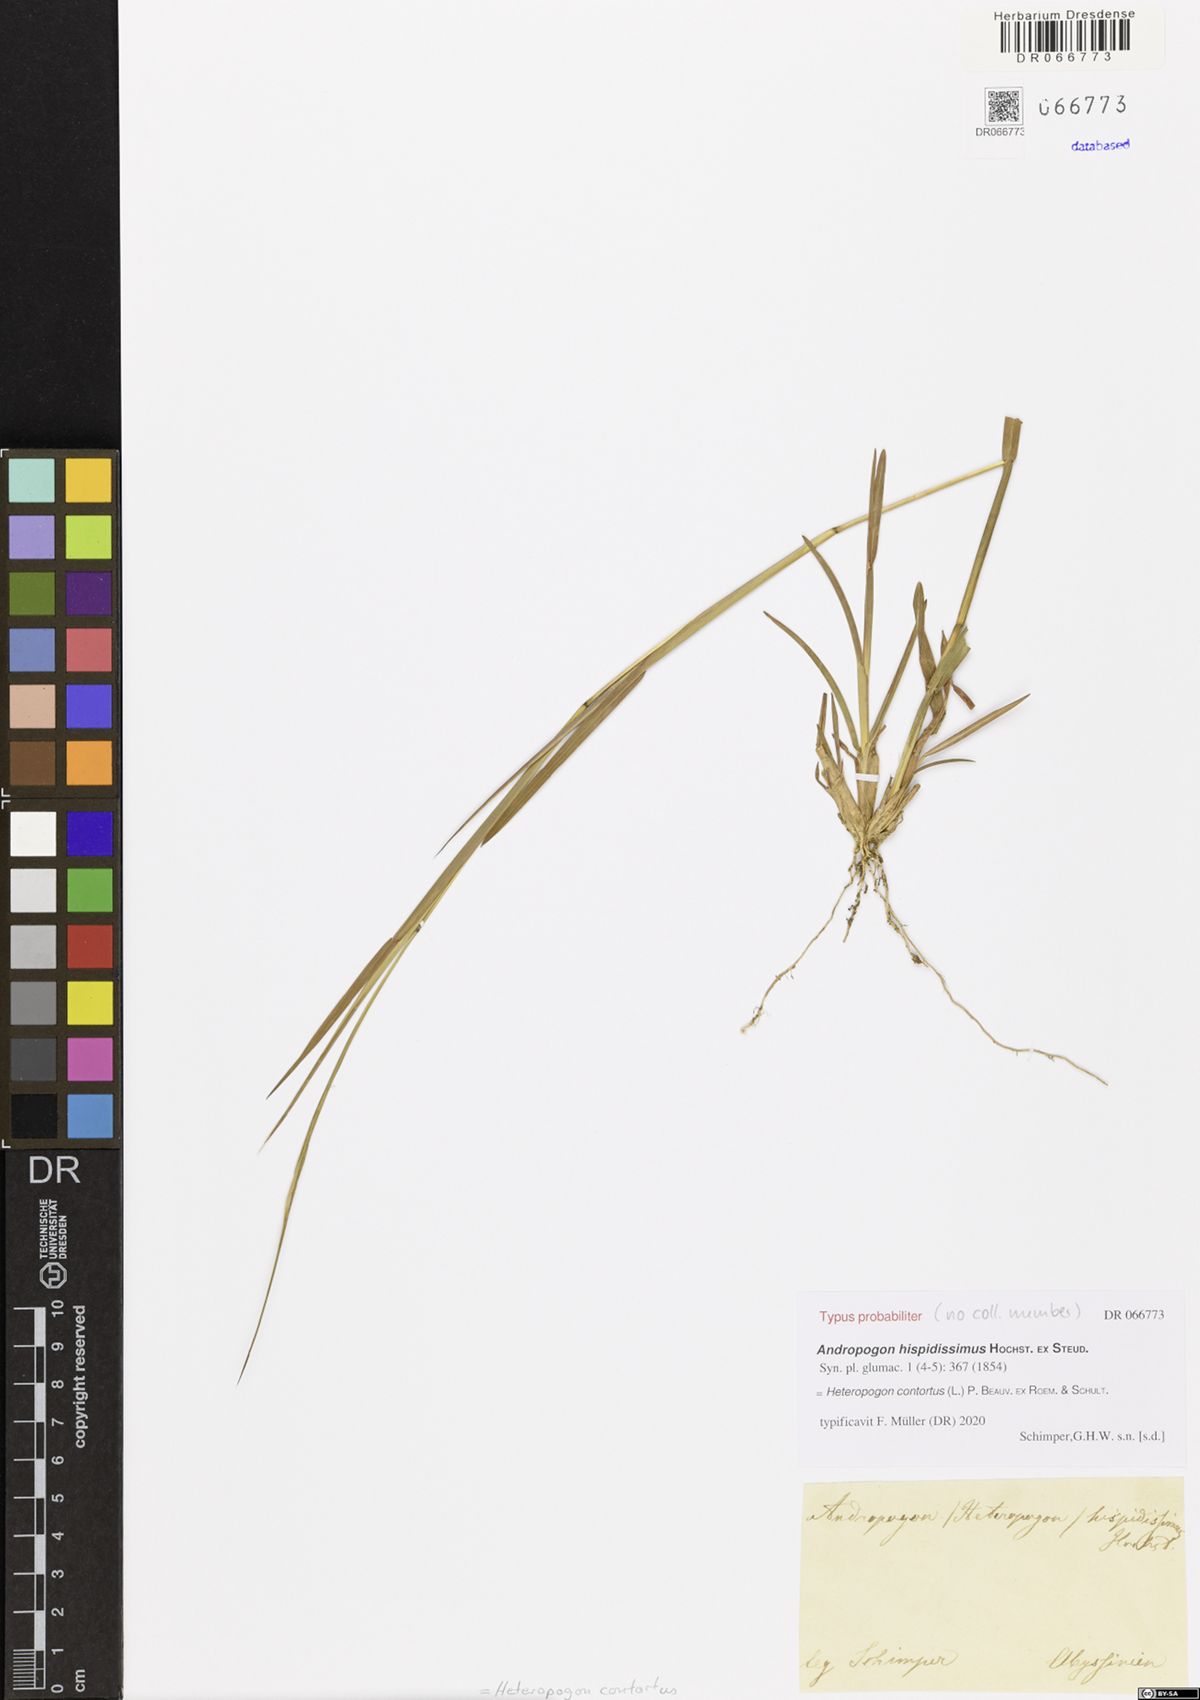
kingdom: Plantae
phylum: Tracheophyta
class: Liliopsida
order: Poales
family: Poaceae
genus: Heteropogon
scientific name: Heteropogon contortus
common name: Tanglehead
